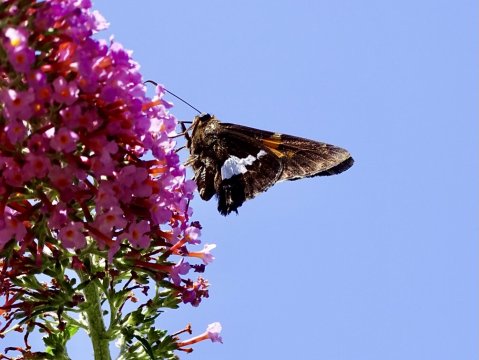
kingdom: Animalia
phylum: Arthropoda
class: Insecta
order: Lepidoptera
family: Hesperiidae
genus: Epargyreus
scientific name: Epargyreus clarus
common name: Silver-spotted Skipper
